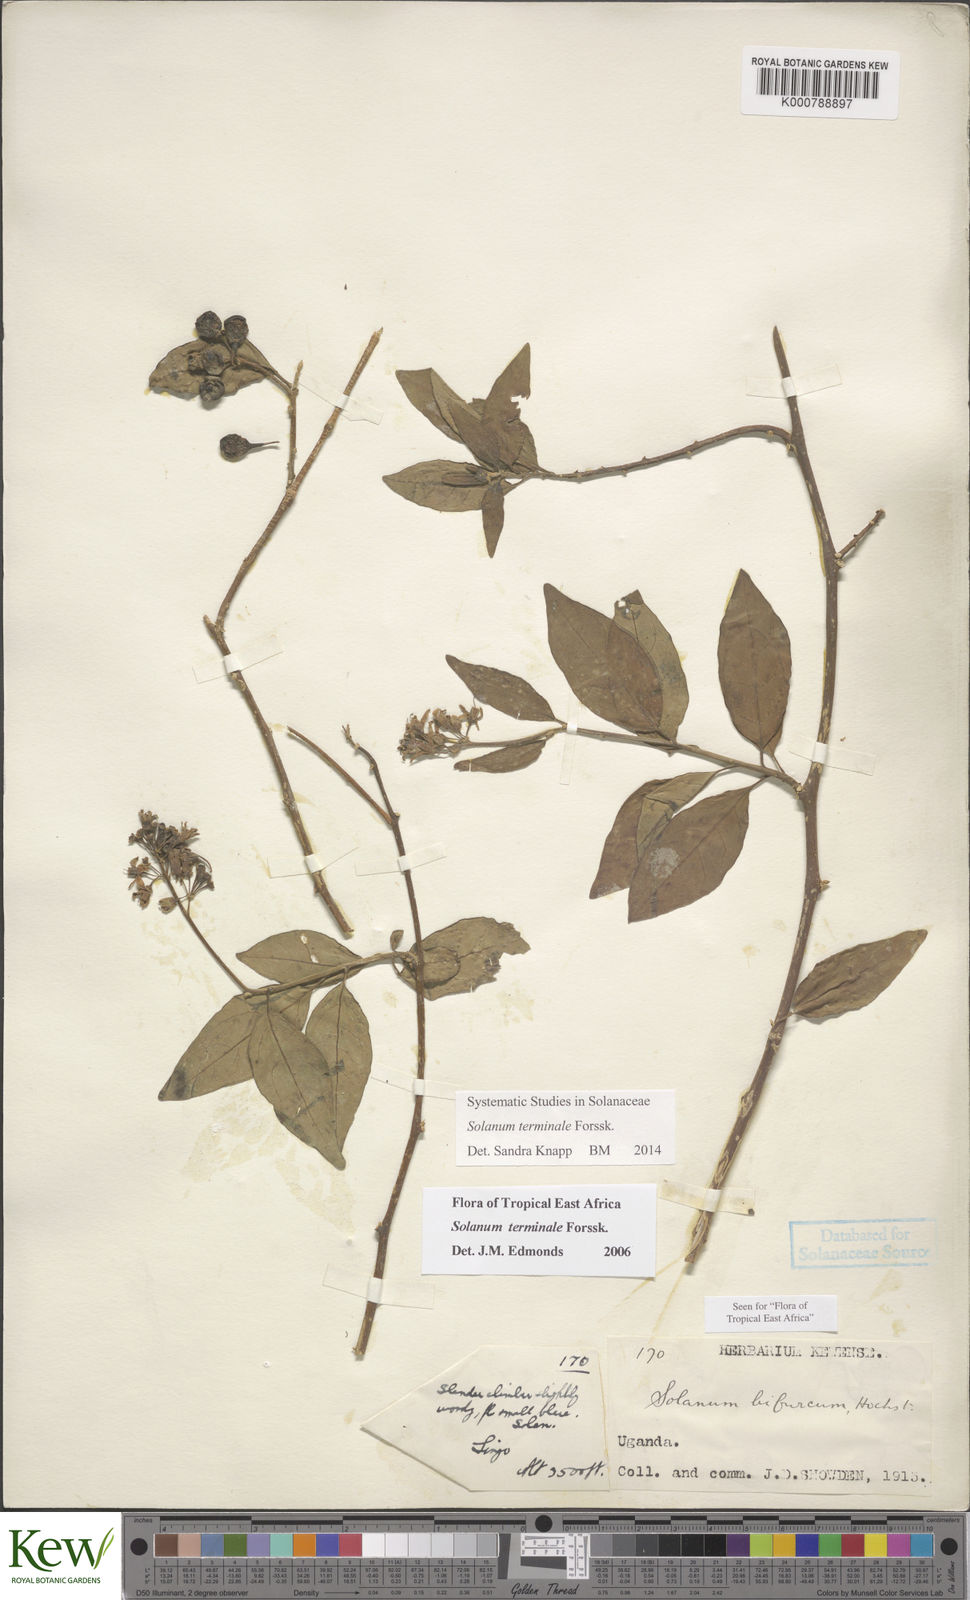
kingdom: Plantae
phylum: Tracheophyta
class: Magnoliopsida
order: Solanales
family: Solanaceae
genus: Solanum
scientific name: Solanum terminale
